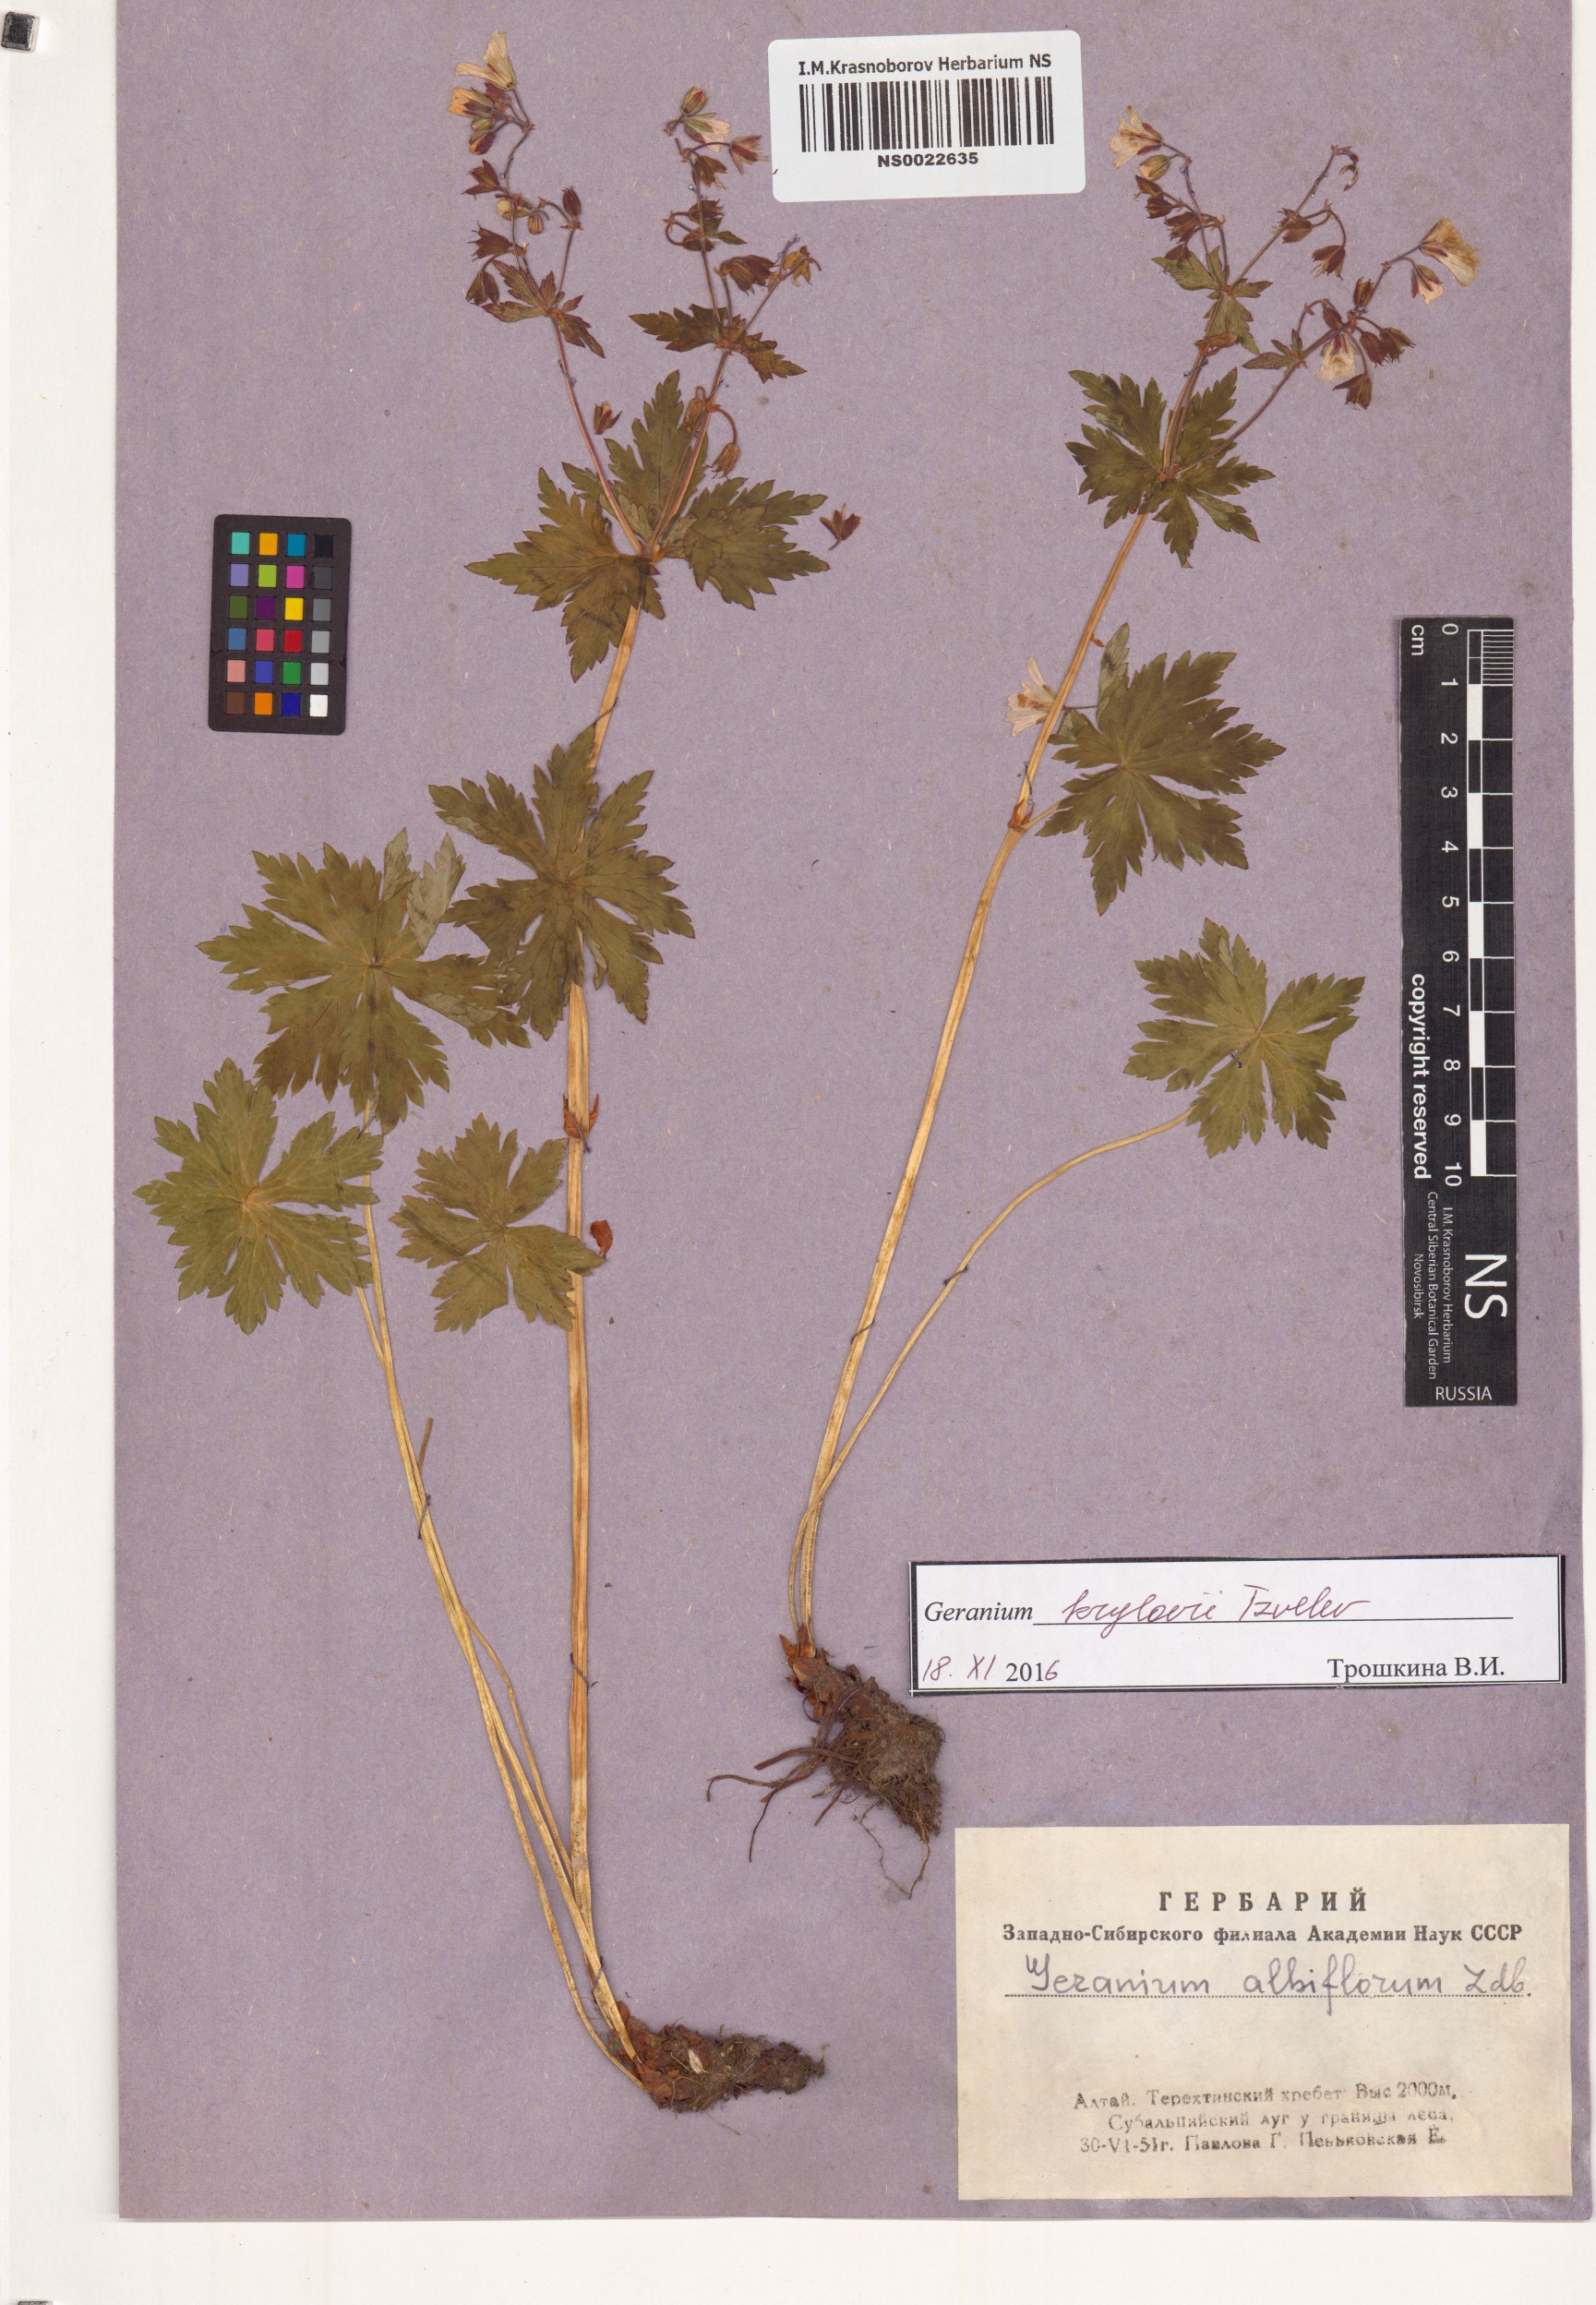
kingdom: Plantae
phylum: Tracheophyta
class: Magnoliopsida
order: Geraniales
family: Geraniaceae
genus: Geranium
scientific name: Geranium sylvaticum
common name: Wood crane's-bill
